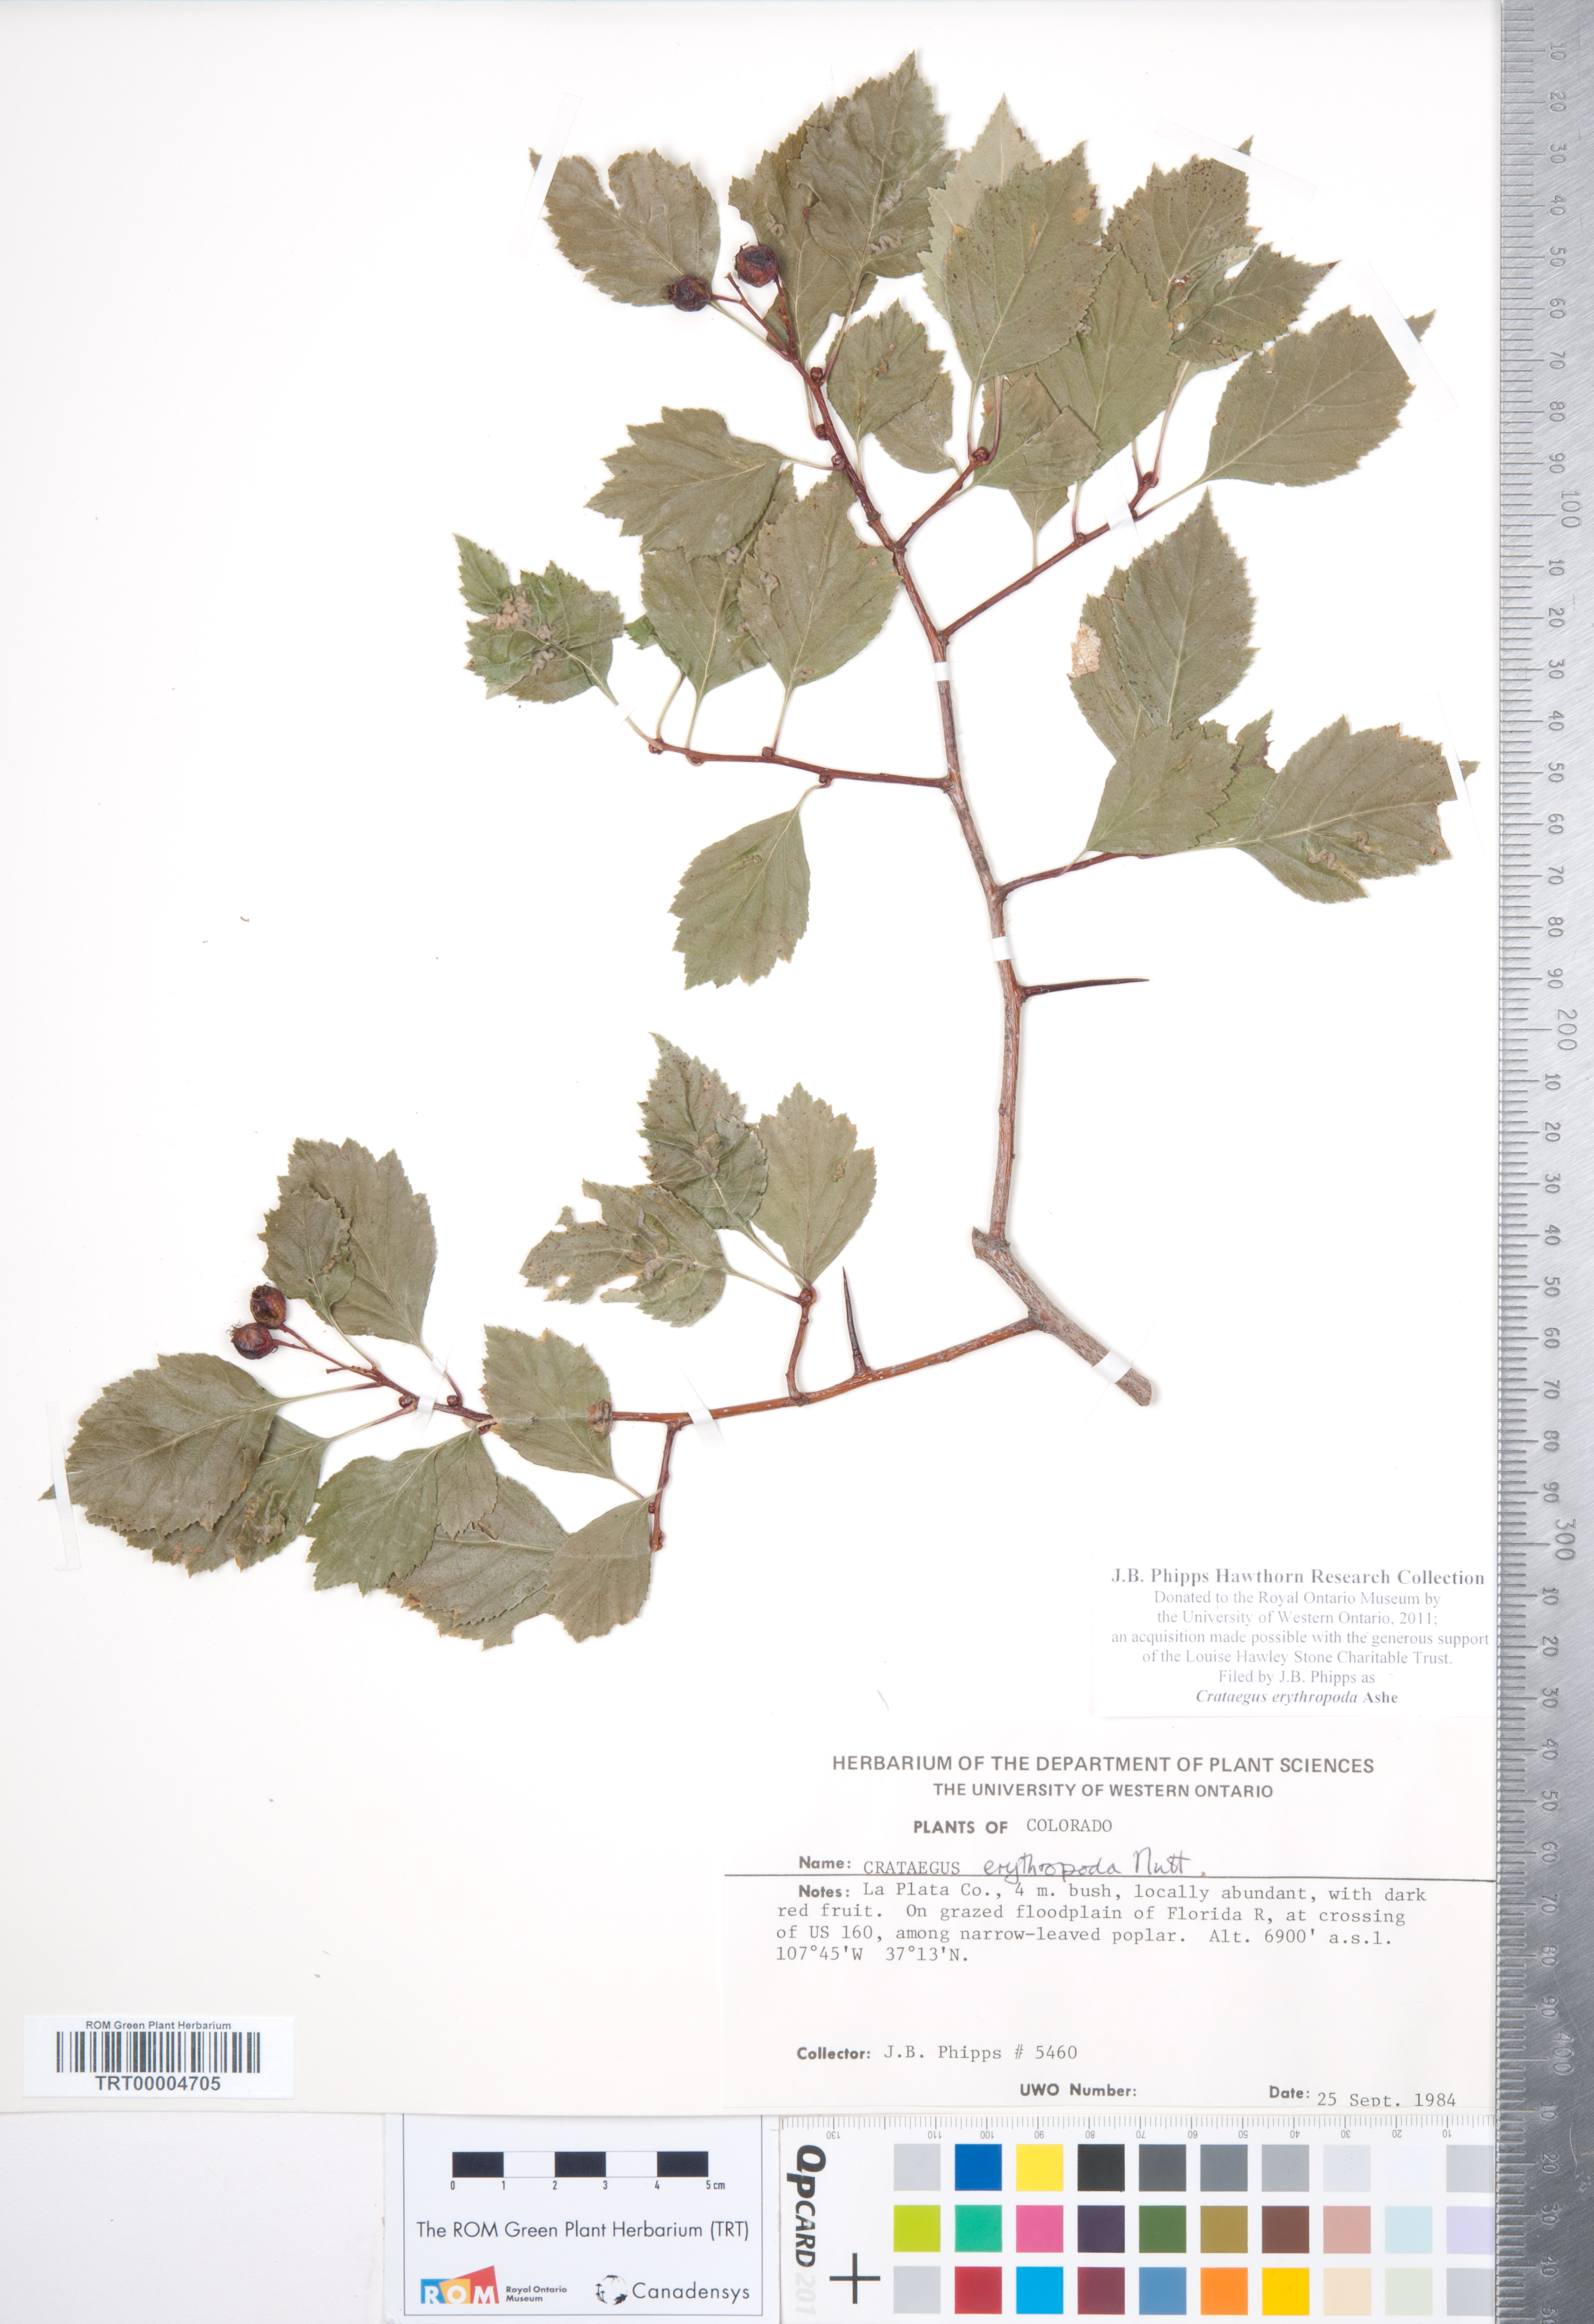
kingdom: Plantae
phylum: Tracheophyta
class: Magnoliopsida
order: Rosales
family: Rosaceae
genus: Crataegus
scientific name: Crataegus erythropoda
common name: Cerro hawthorn
